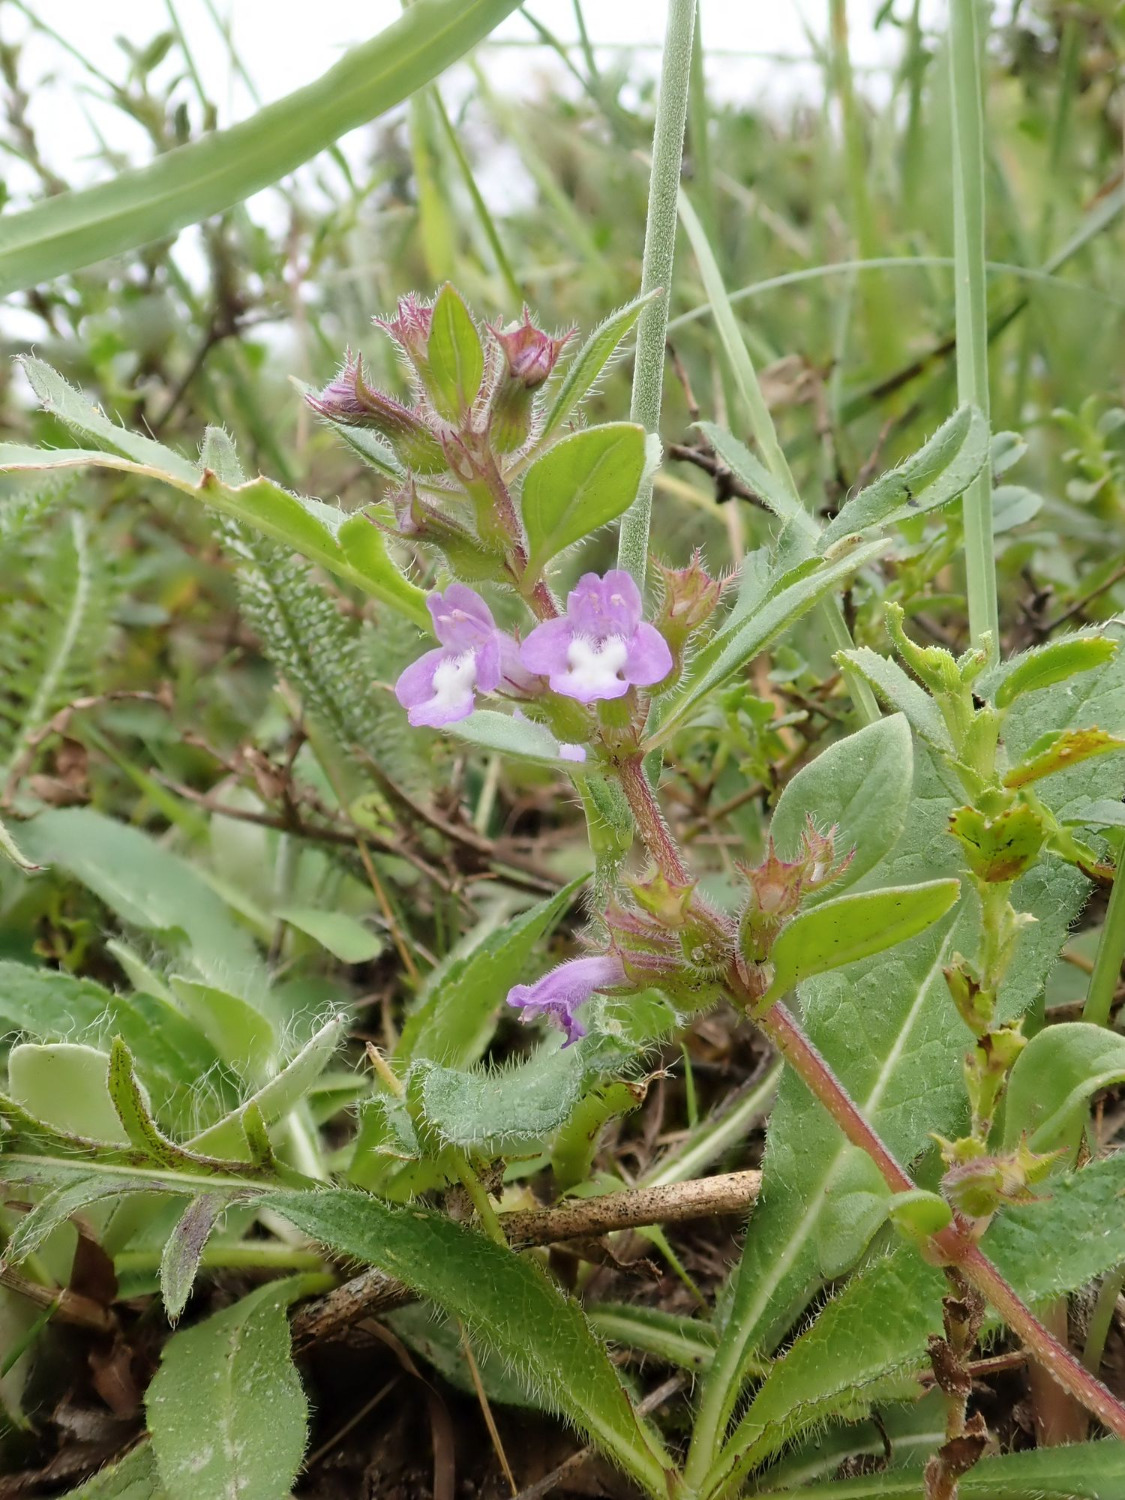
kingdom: Plantae
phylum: Tracheophyta
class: Magnoliopsida
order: Lamiales
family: Lamiaceae
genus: Clinopodium
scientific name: Clinopodium acinos
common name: Voldtimian
